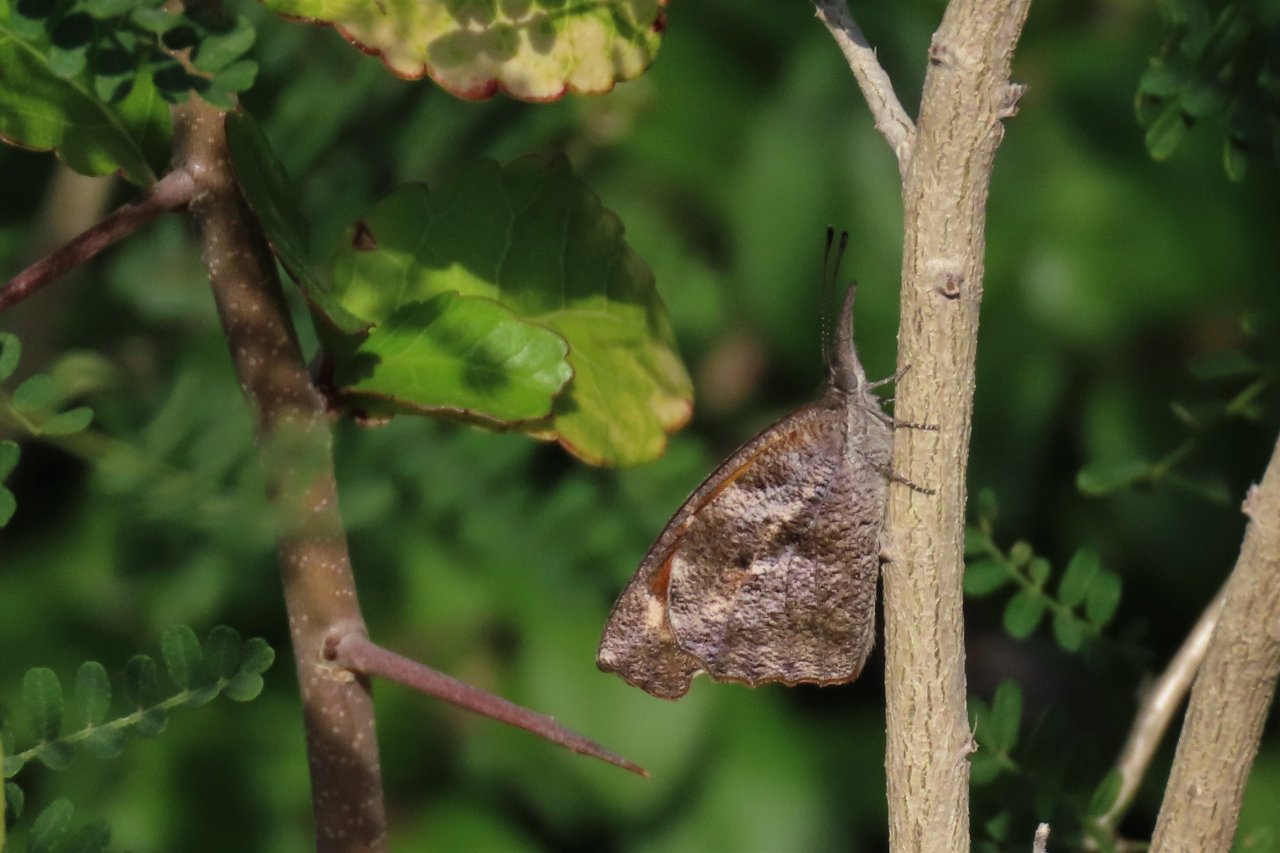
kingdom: Animalia
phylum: Arthropoda
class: Insecta
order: Lepidoptera
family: Nymphalidae
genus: Libytheana
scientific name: Libytheana carinenta
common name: American Snout
